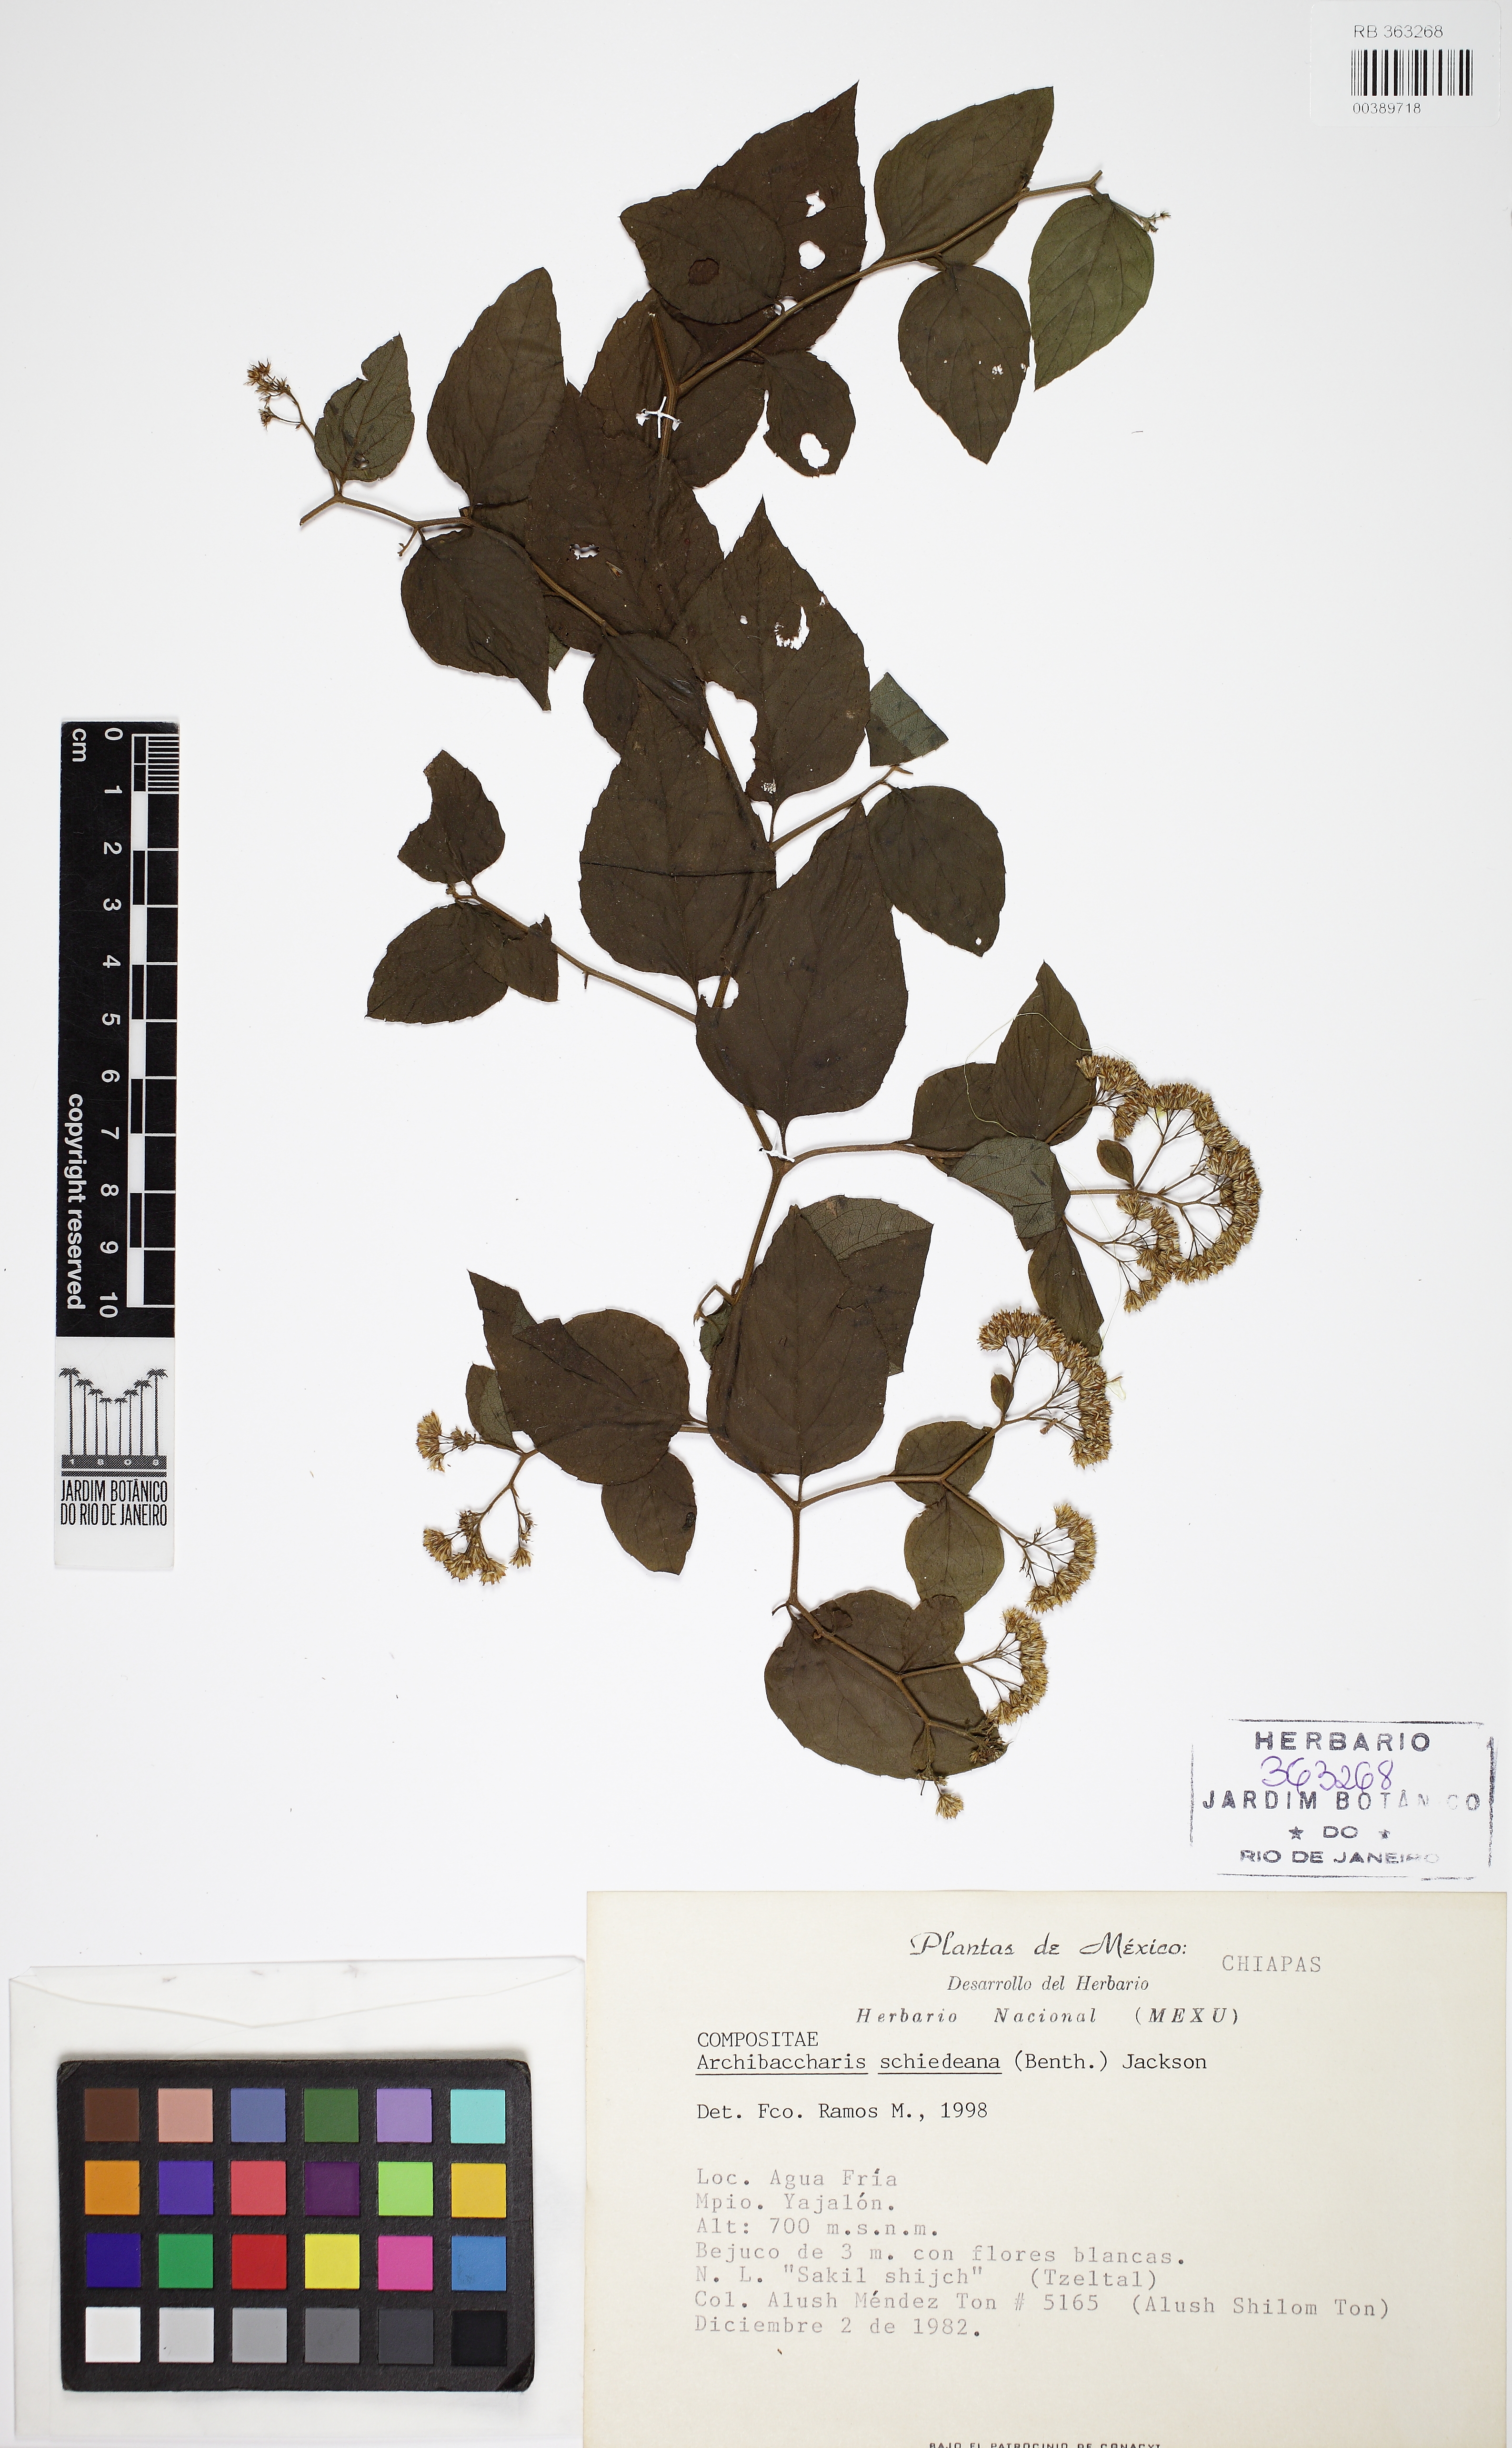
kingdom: Plantae
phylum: Tracheophyta
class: Magnoliopsida
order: Asterales
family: Asteraceae
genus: Archibaccharis
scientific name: Archibaccharis schiedeana
